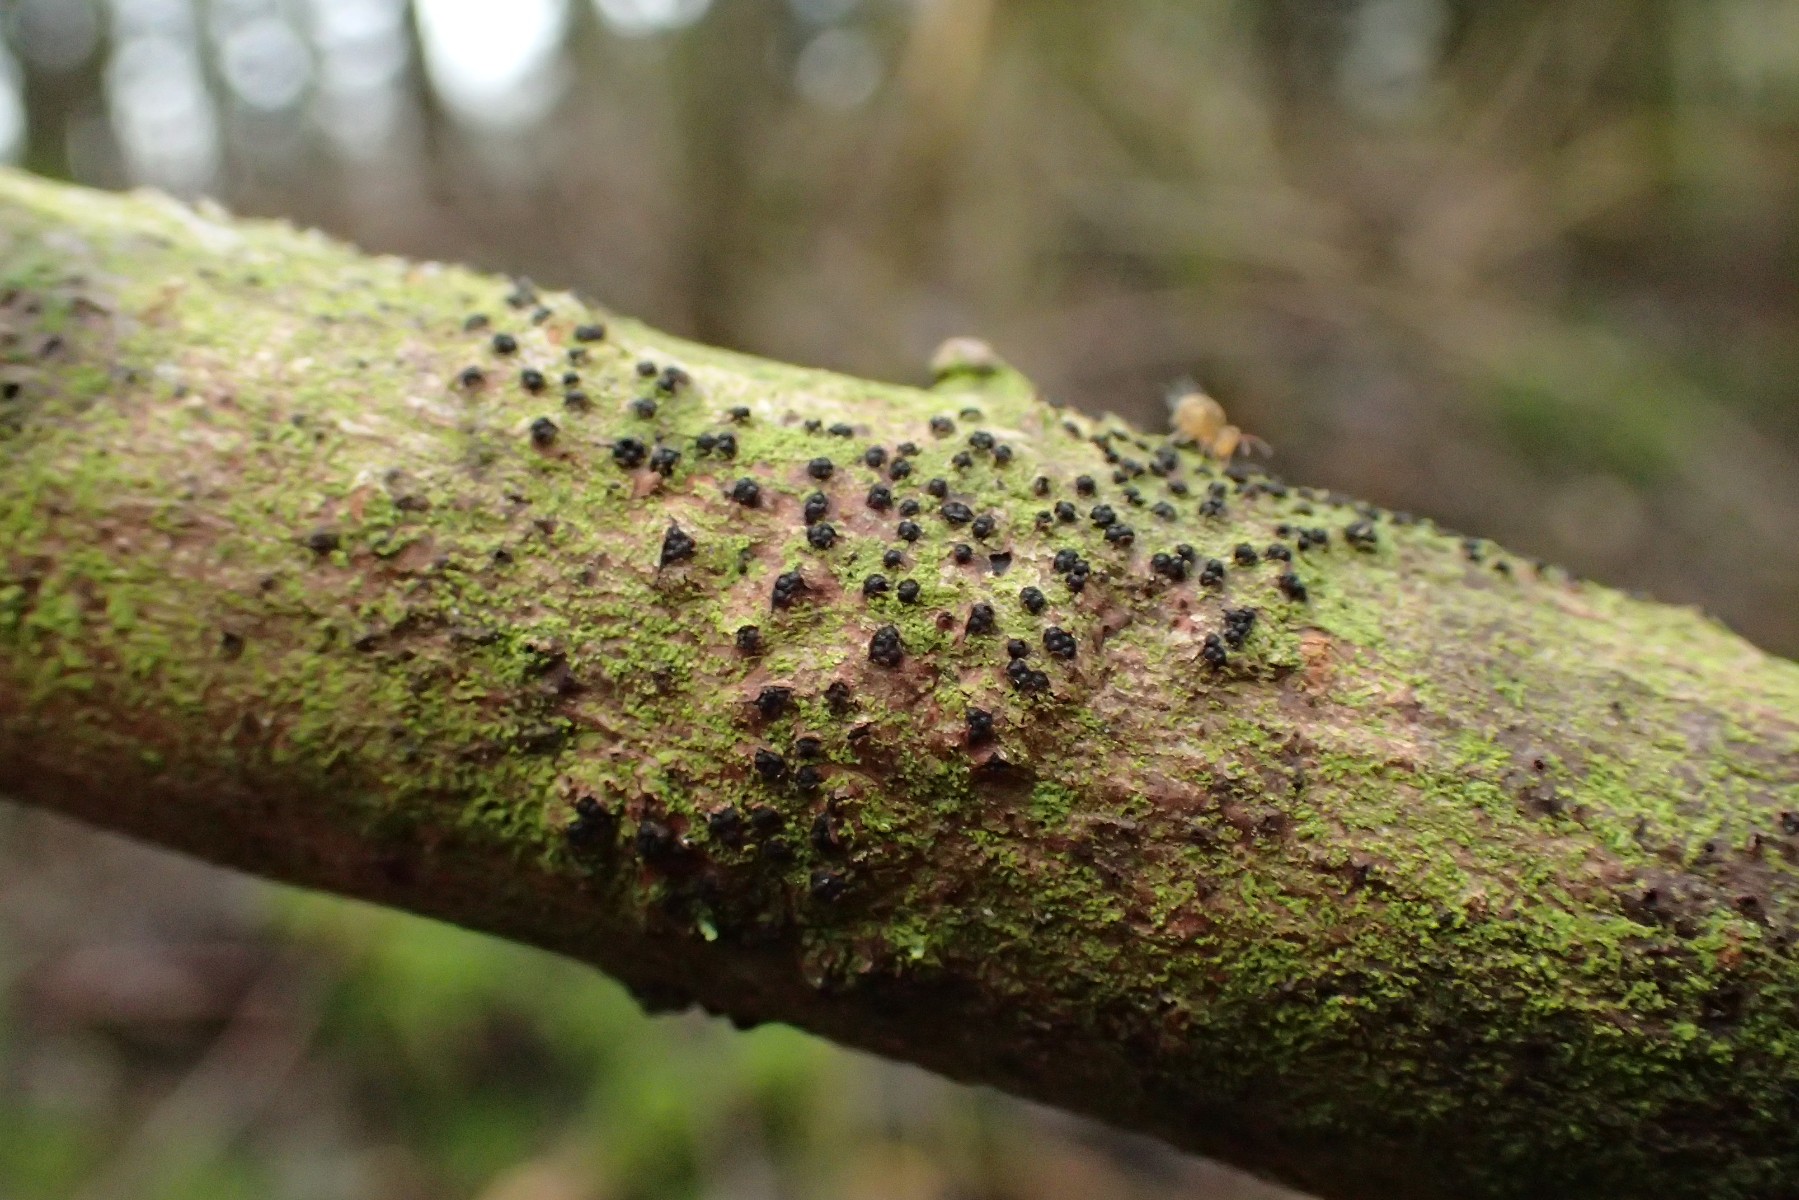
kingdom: Fungi
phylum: Ascomycota
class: Sordariomycetes
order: Xylariales
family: Diatrypaceae
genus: Quaternaria
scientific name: Quaternaria dissepta
